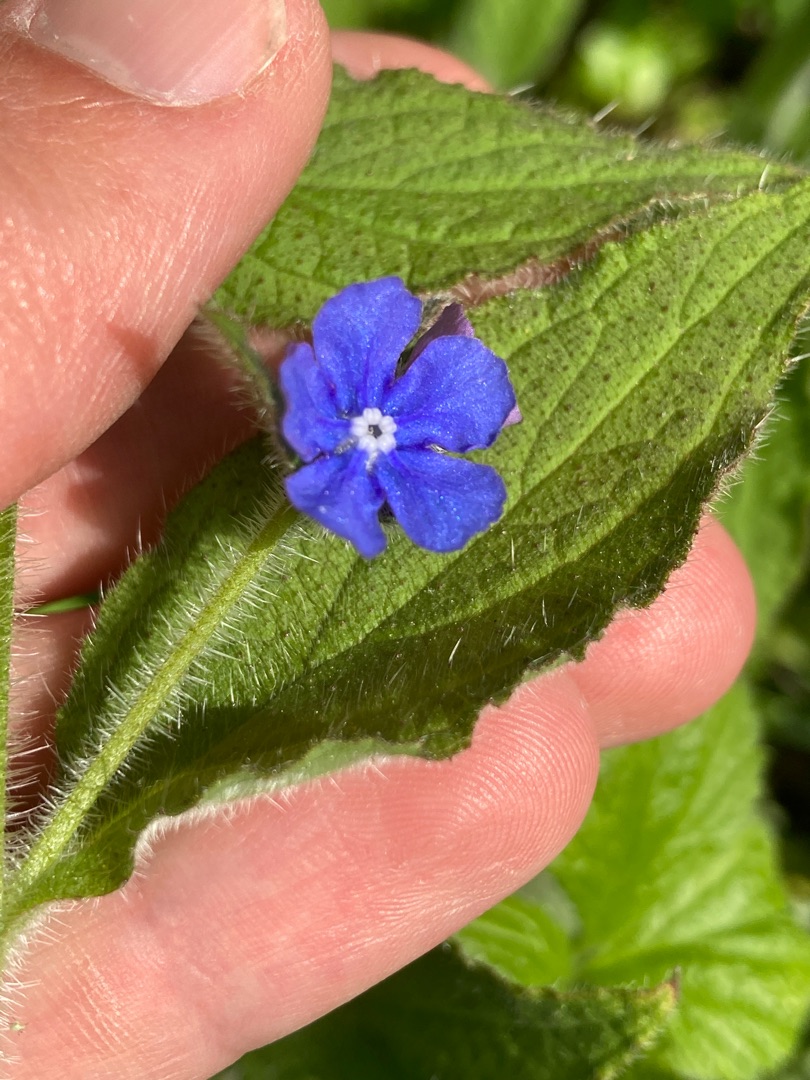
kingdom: Plantae
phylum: Tracheophyta
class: Magnoliopsida
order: Boraginales
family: Boraginaceae
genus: Pentaglottis
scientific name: Pentaglottis sempervirens
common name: Femtunge
